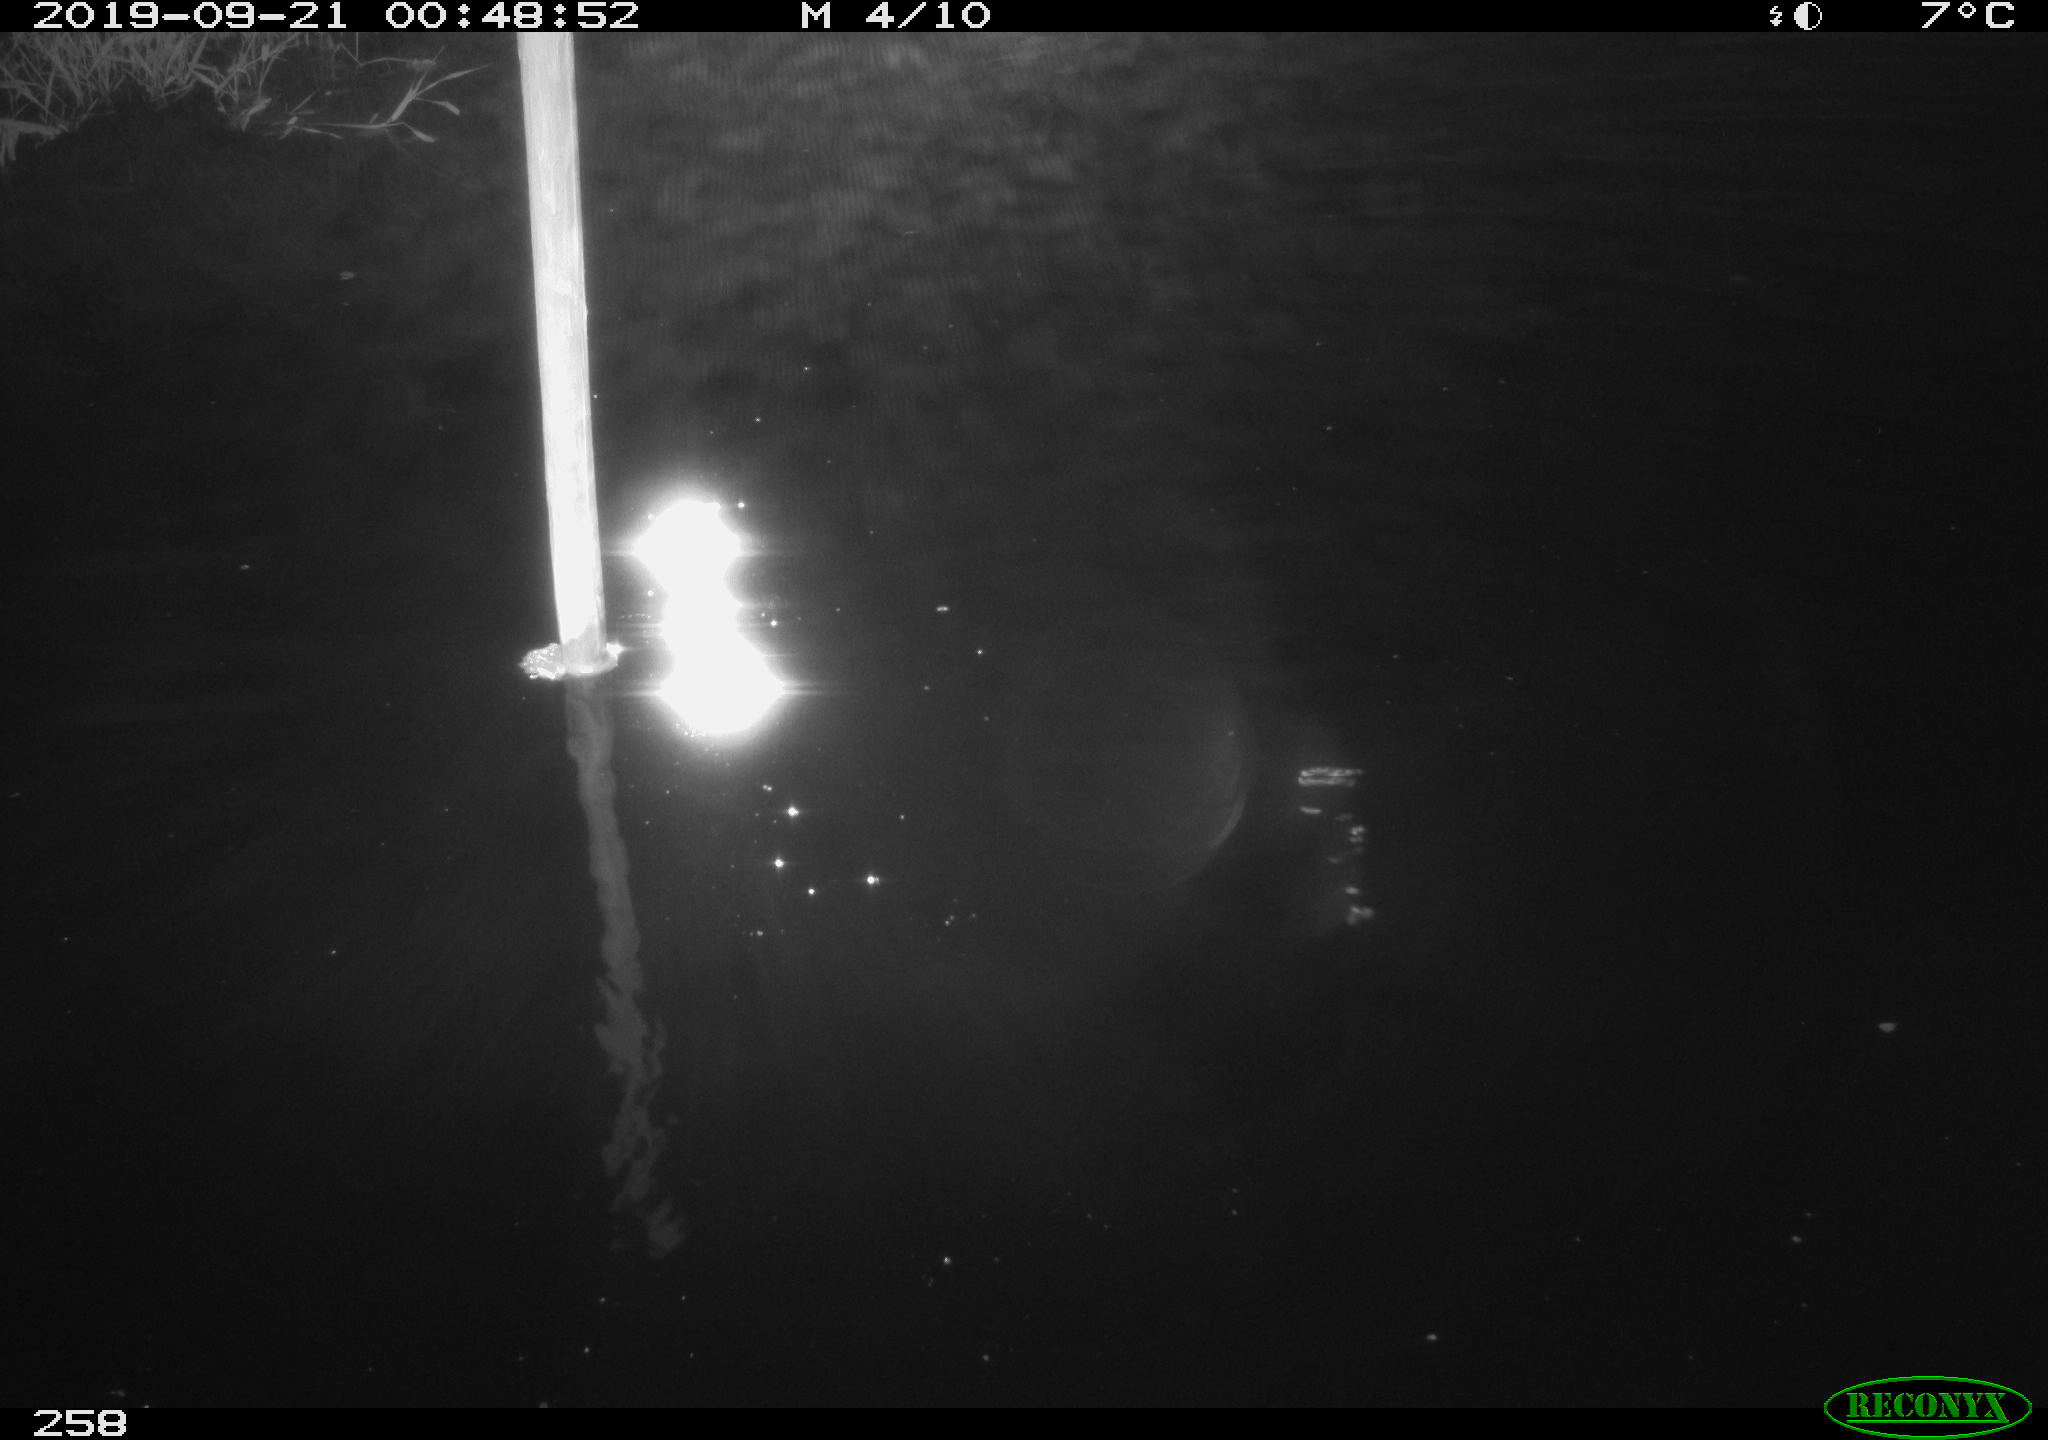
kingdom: Animalia
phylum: Chordata
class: Aves
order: Anseriformes
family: Anatidae
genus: Anas
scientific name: Anas platyrhynchos
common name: Mallard
